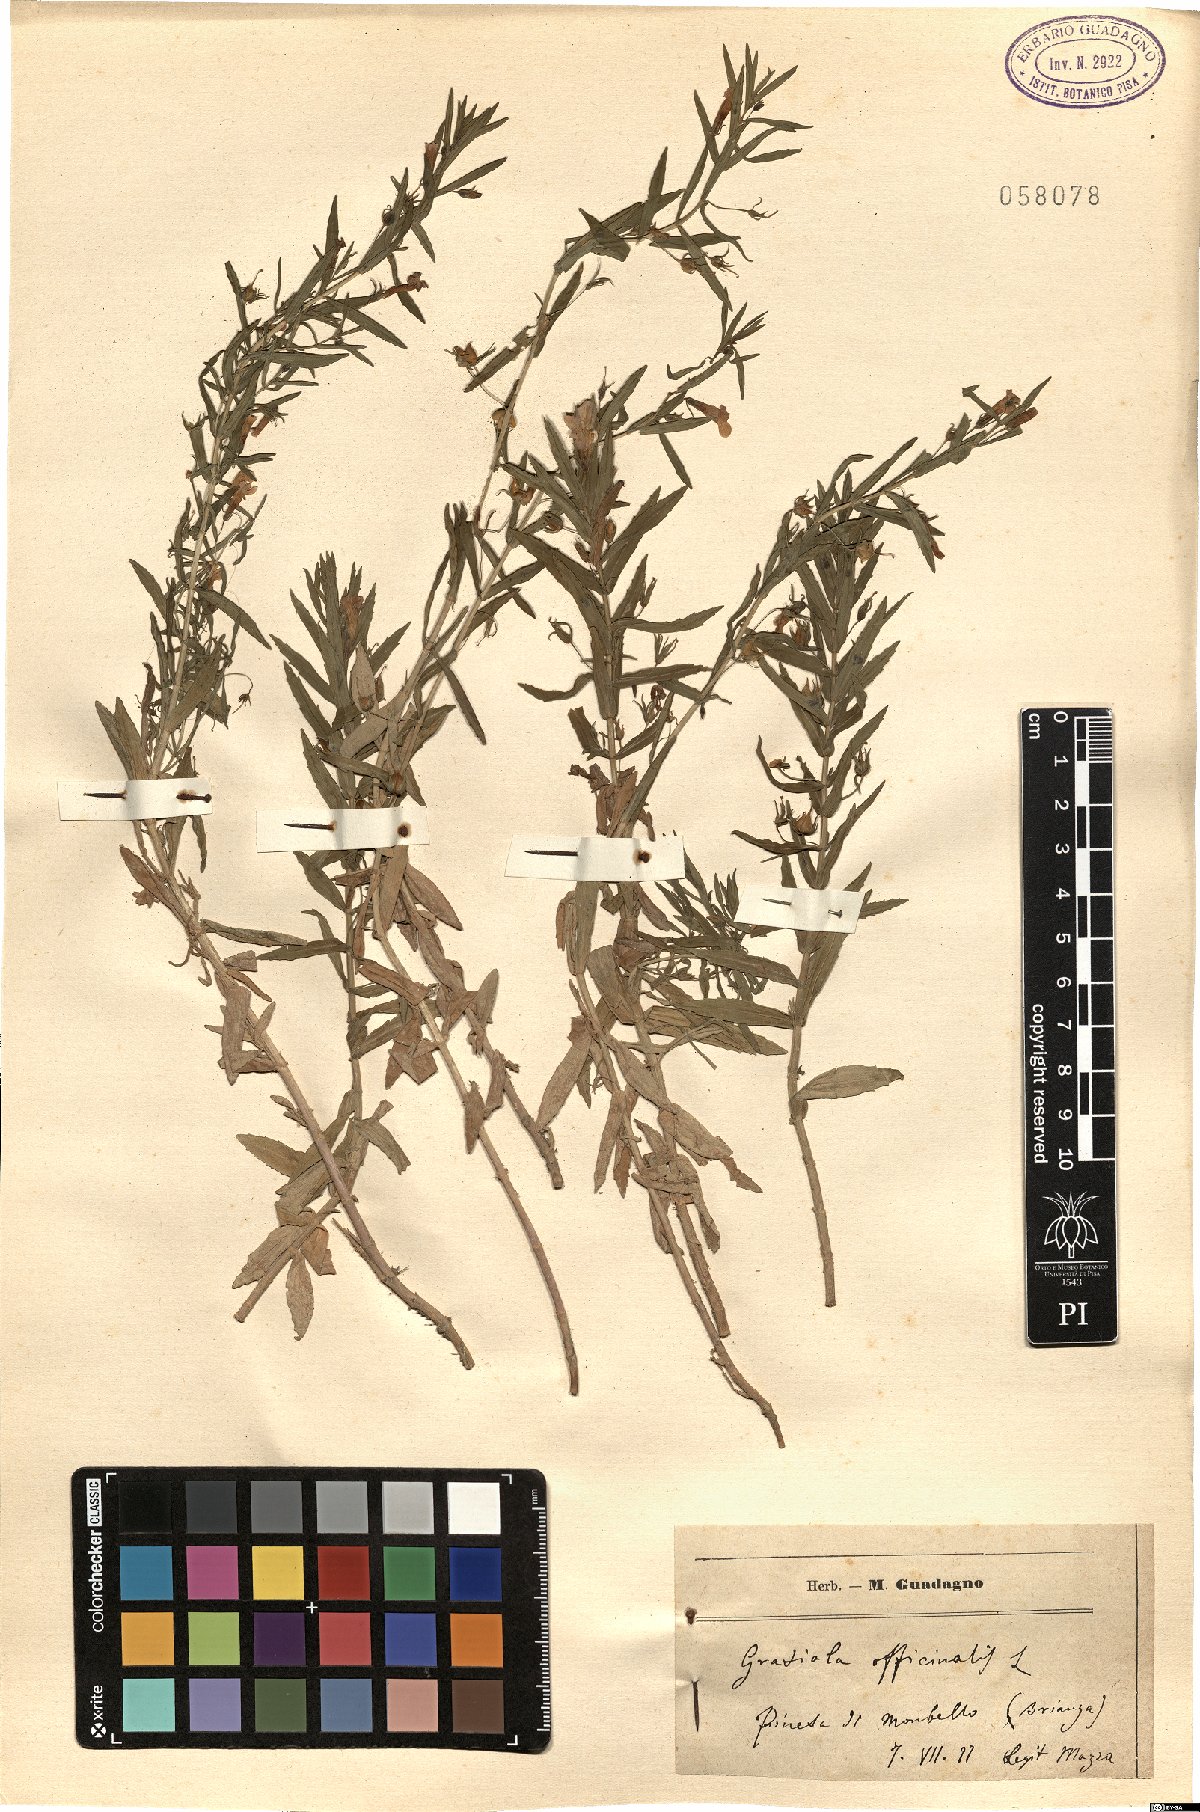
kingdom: Plantae
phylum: Tracheophyta
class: Magnoliopsida
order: Lamiales
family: Plantaginaceae
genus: Gratiola
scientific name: Gratiola officinalis
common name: Gratiola
